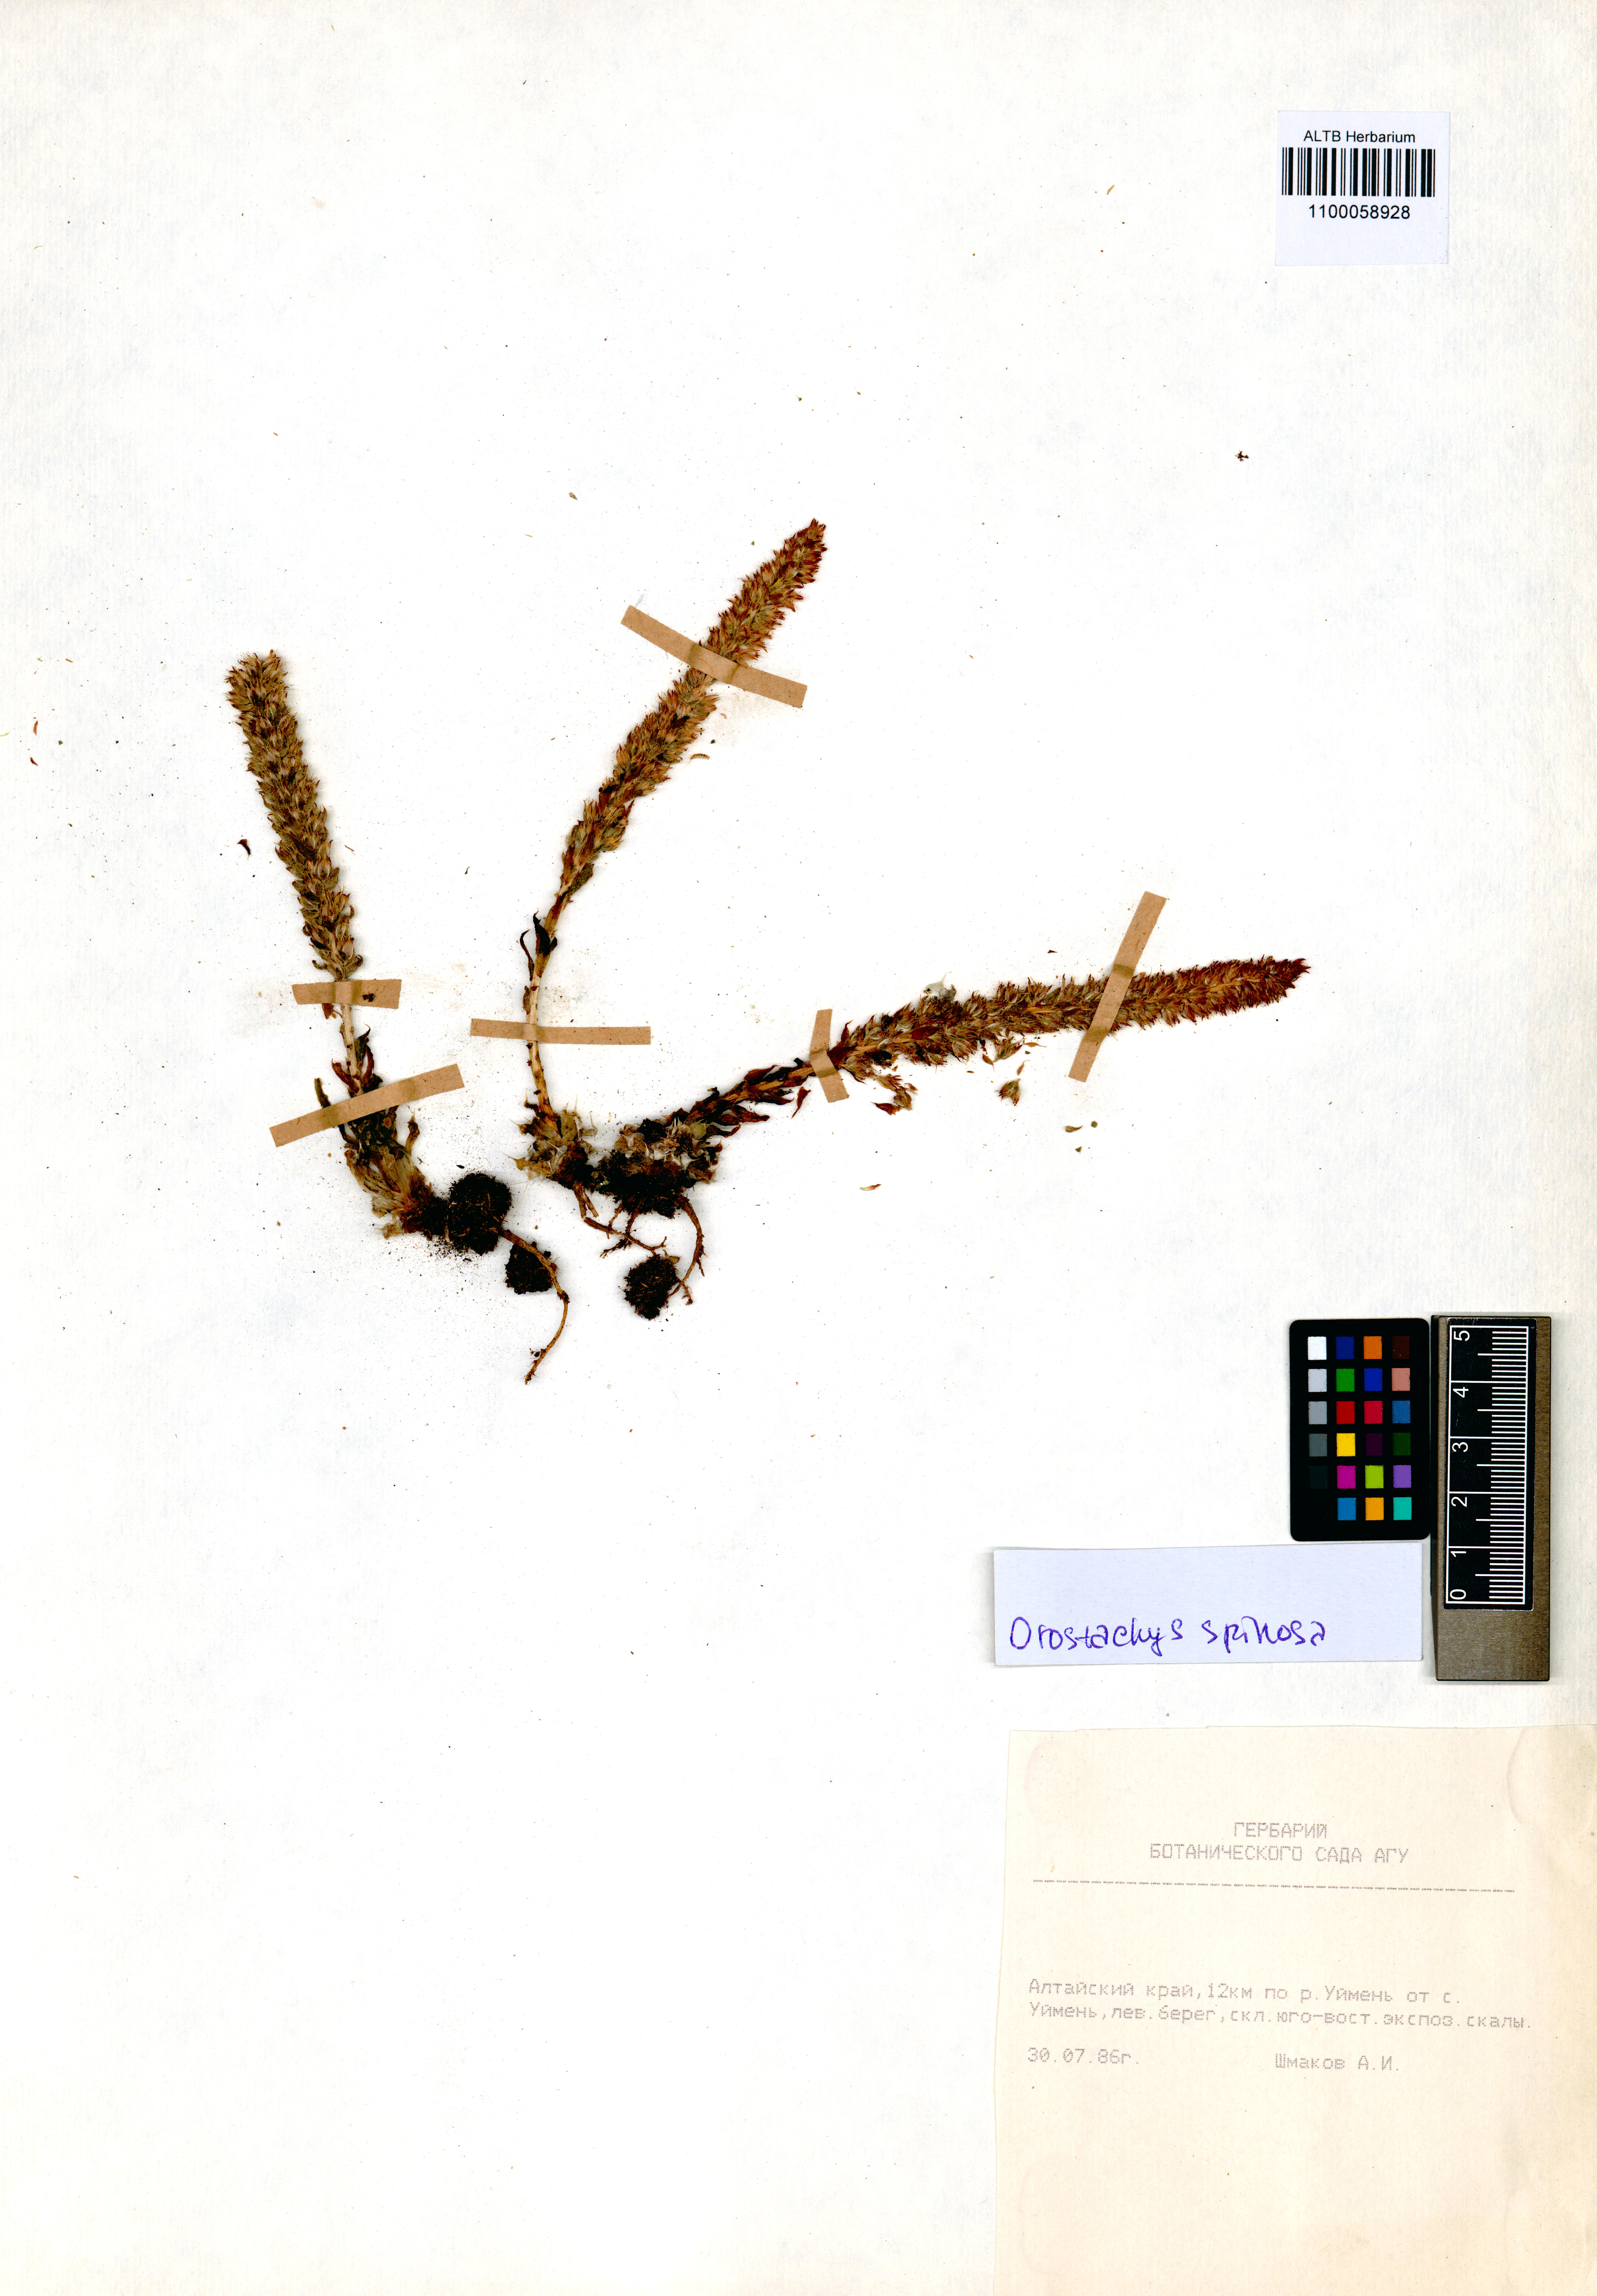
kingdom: Plantae
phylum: Tracheophyta
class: Magnoliopsida
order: Saxifragales
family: Crassulaceae
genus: Orostachys
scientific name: Orostachys spinosa
